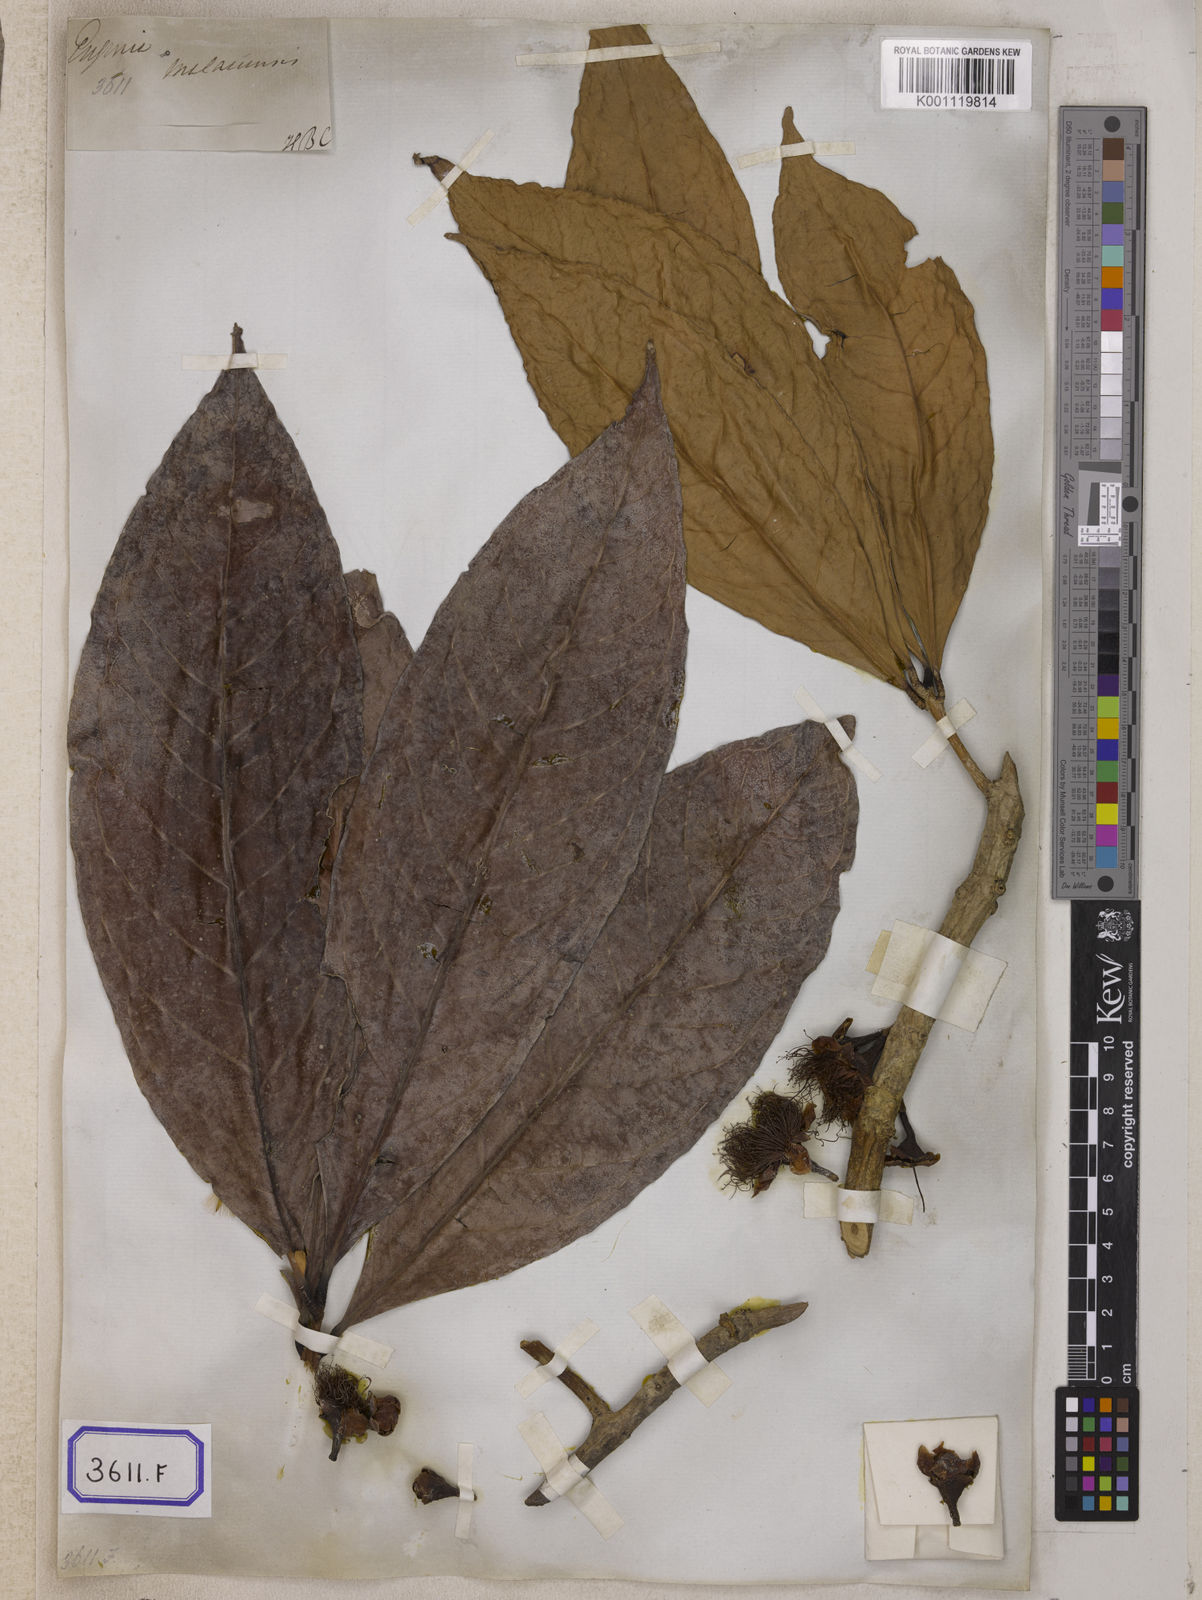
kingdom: Plantae
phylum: Tracheophyta
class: Magnoliopsida
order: Myrtales
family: Myrtaceae
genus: Syzygium
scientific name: Syzygium malaccense
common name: Malaysian apple
